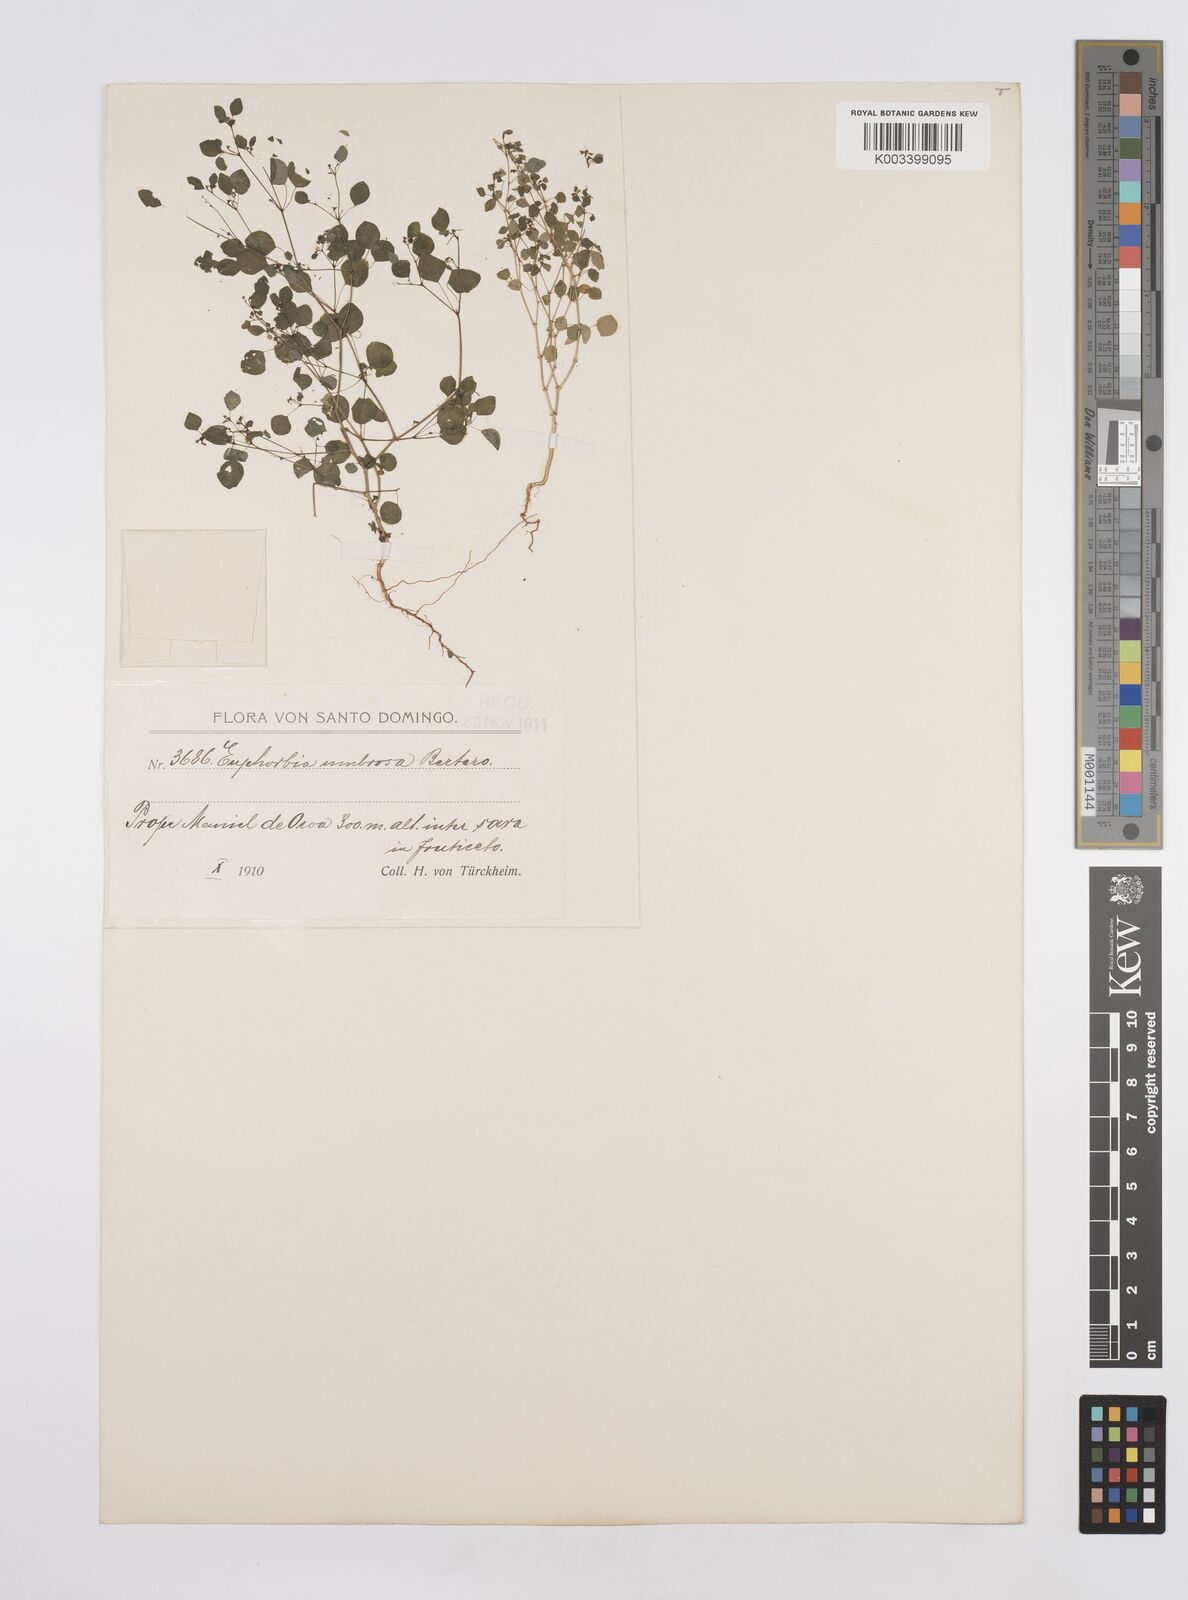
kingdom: Plantae
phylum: Tracheophyta
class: Magnoliopsida
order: Malpighiales
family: Euphorbiaceae
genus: Euphorbia
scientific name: Euphorbia cumbrae
